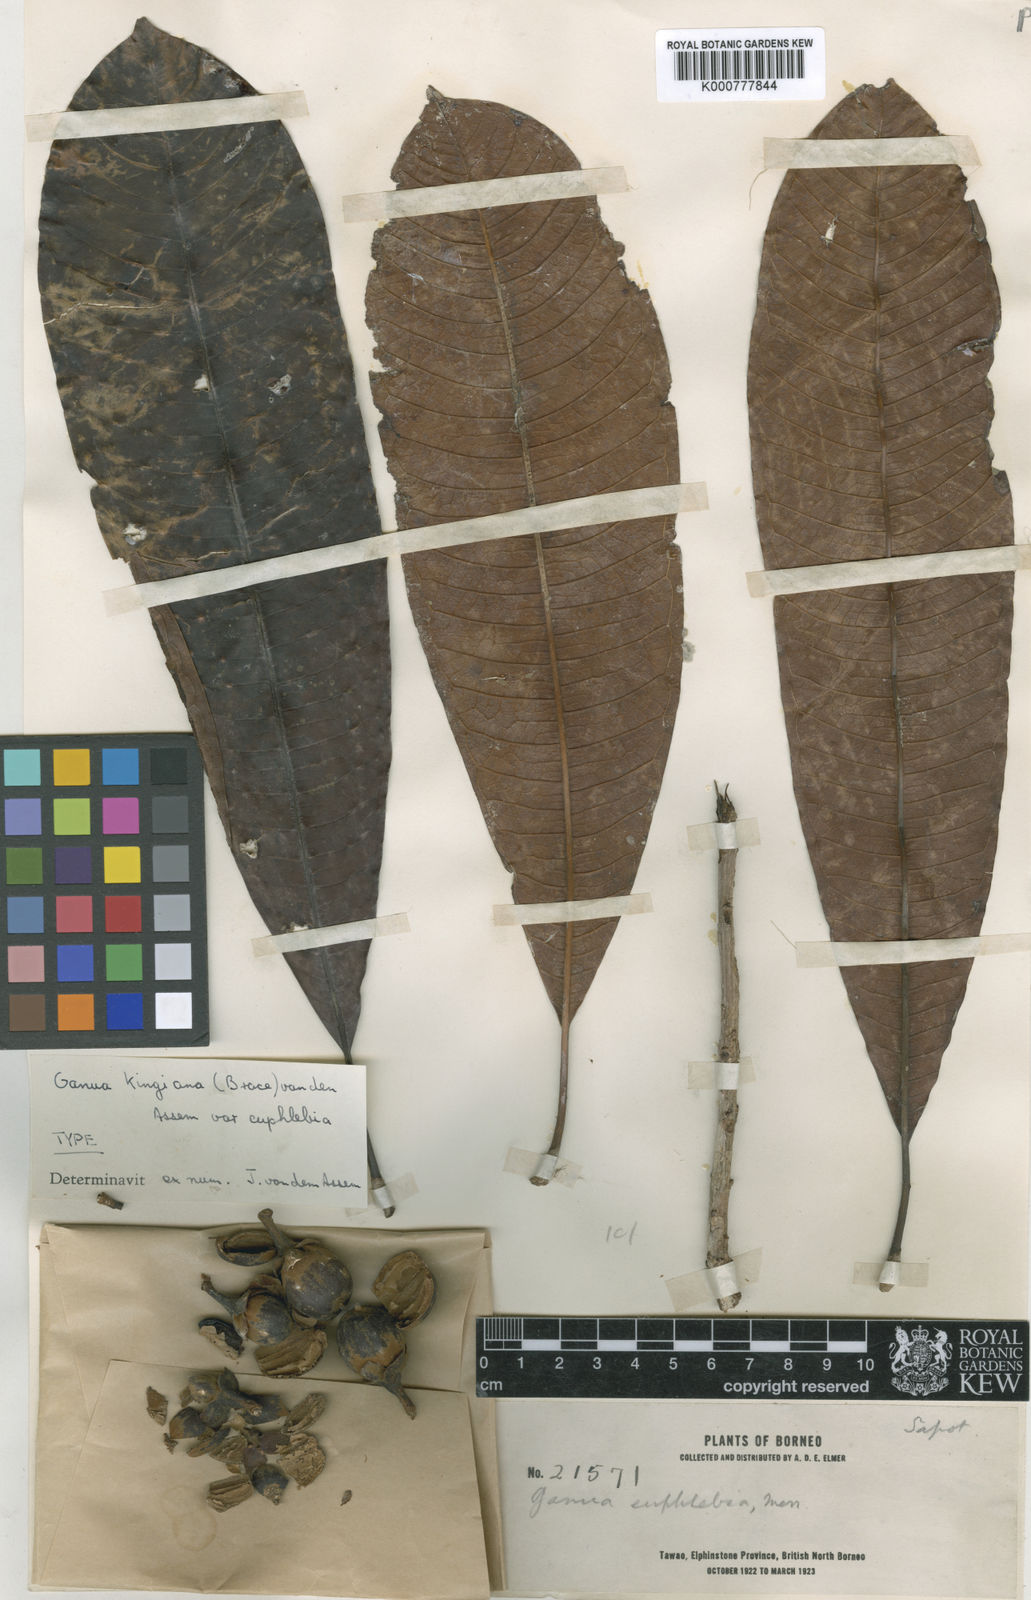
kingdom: Plantae
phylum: Tracheophyta
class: Magnoliopsida
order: Ericales
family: Sapotaceae
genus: Madhuca
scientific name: Madhuca kingiana
